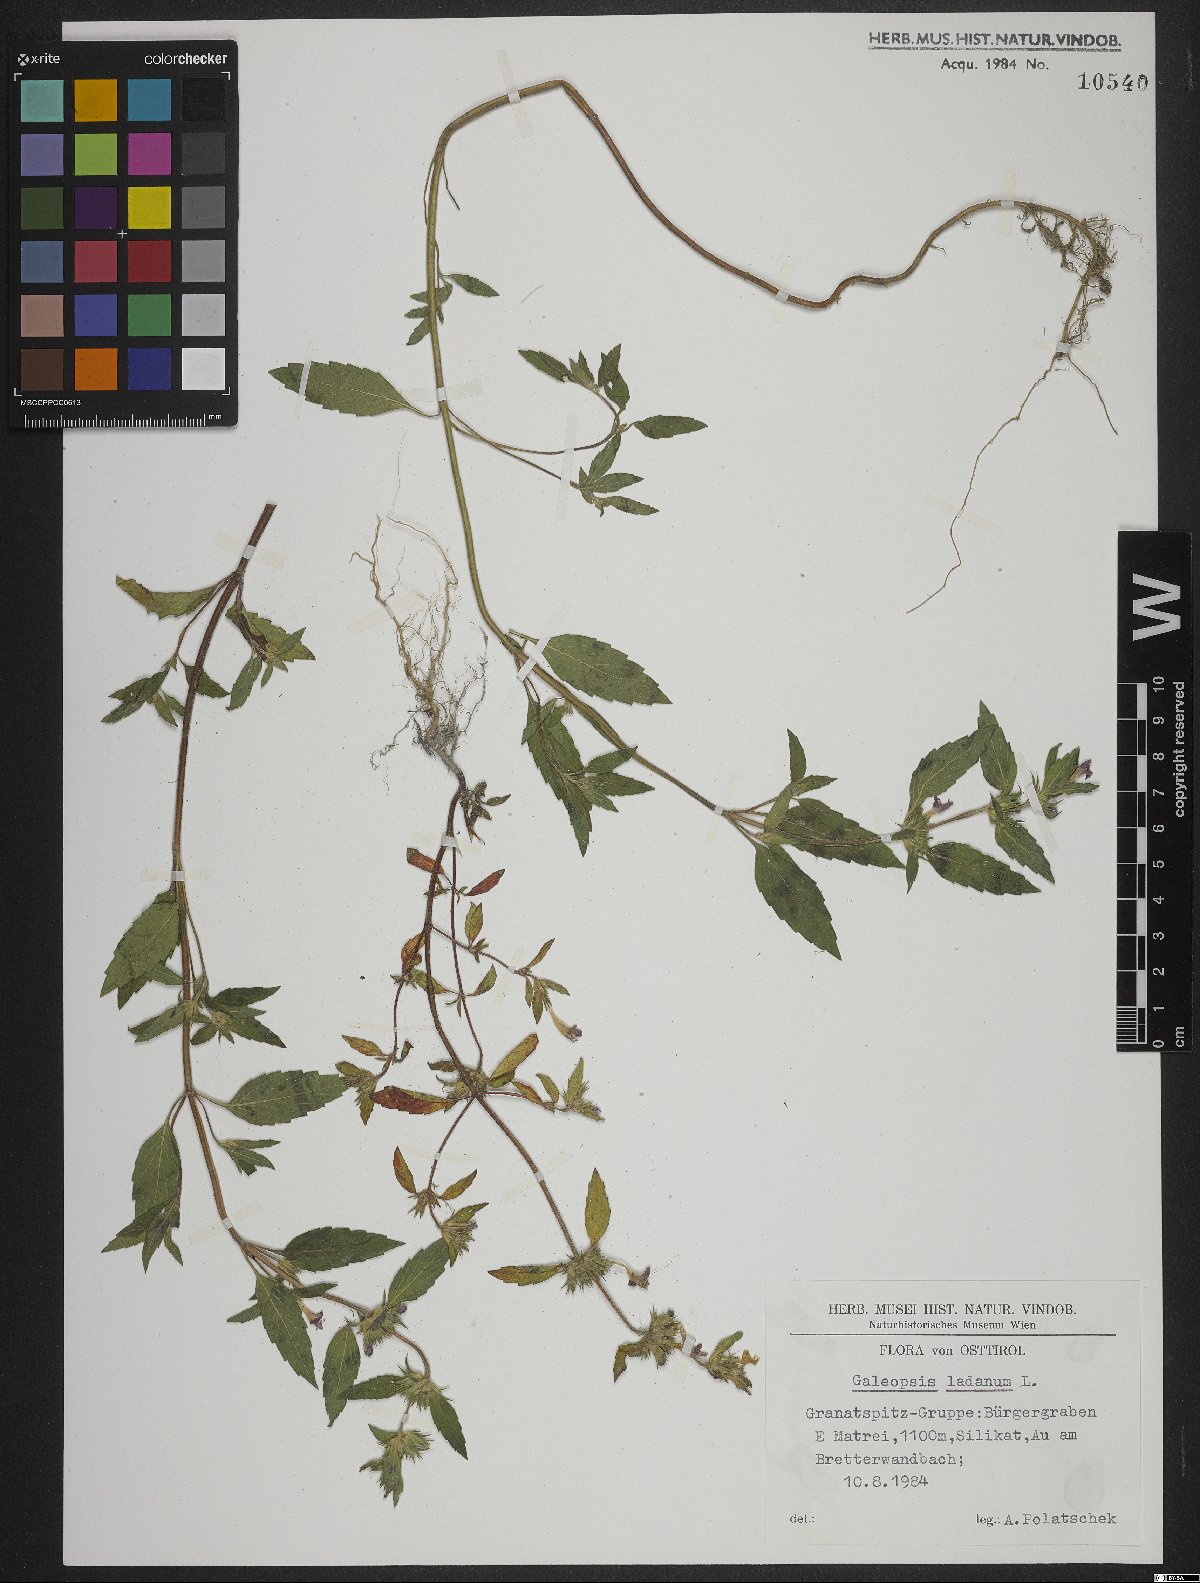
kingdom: Plantae
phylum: Tracheophyta
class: Magnoliopsida
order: Lamiales
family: Lamiaceae
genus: Galeopsis
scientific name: Galeopsis ladanum
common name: Broad-leaved hemp-nettle
